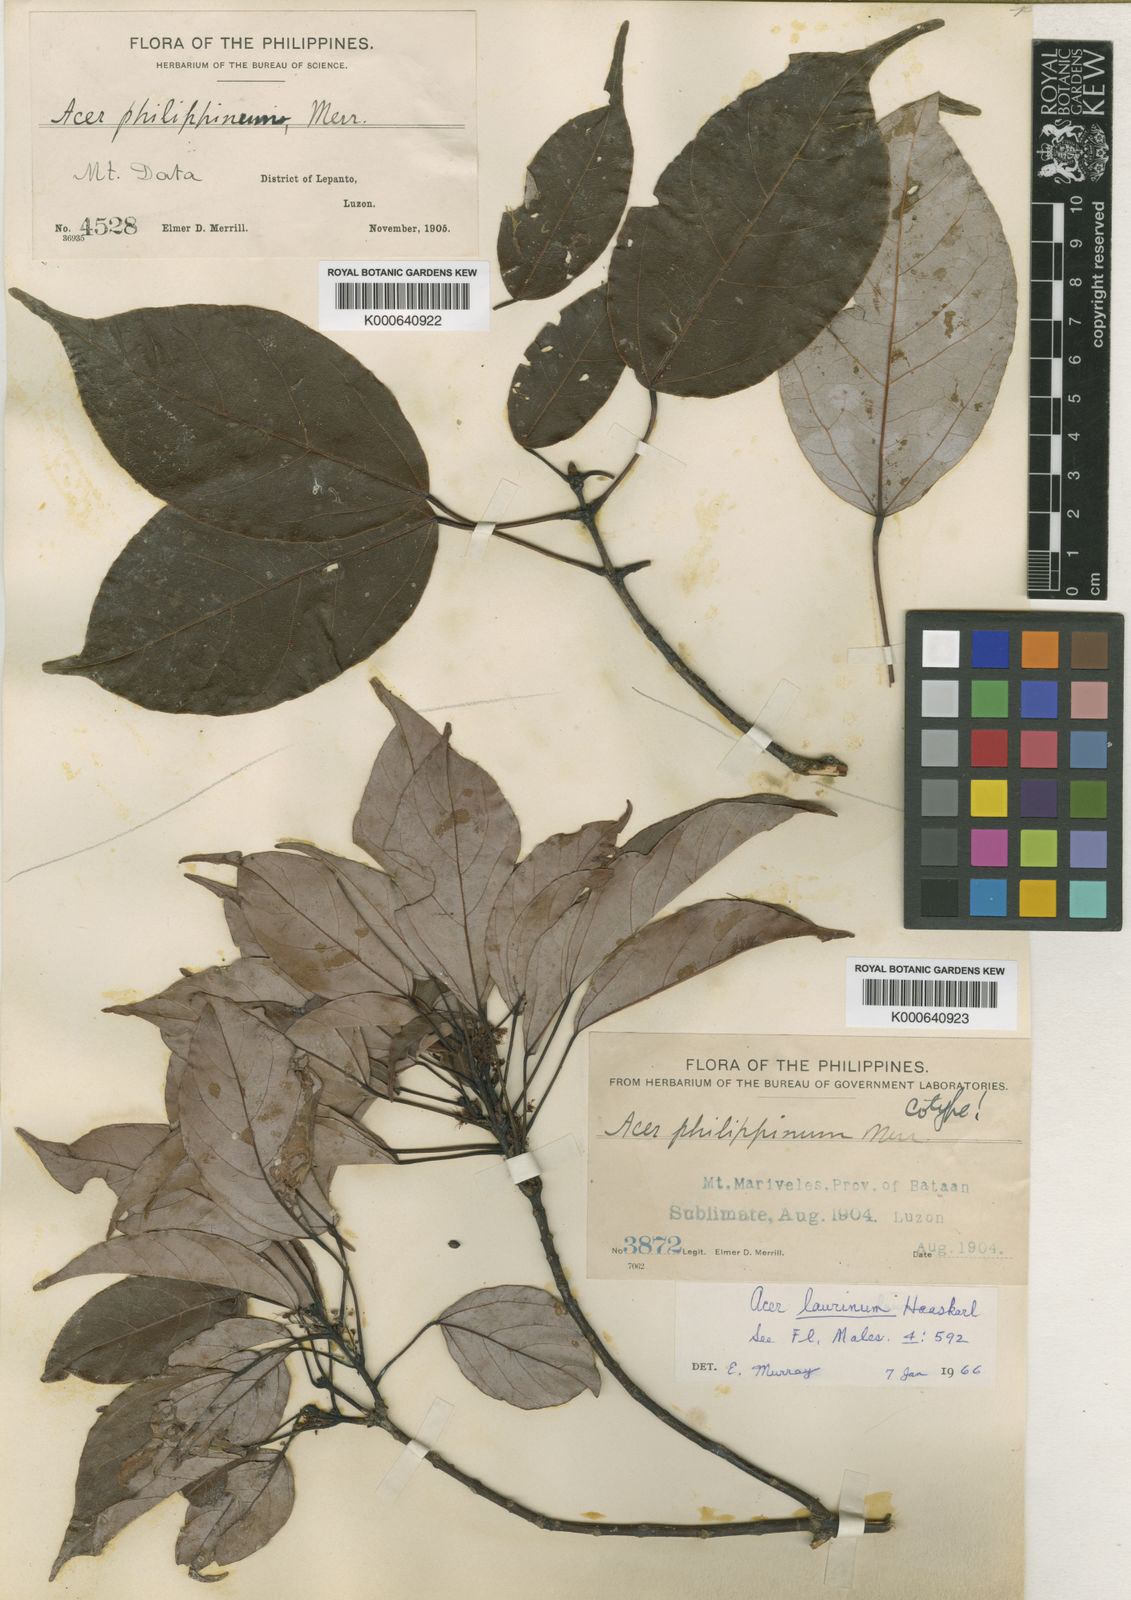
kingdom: Plantae
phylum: Tracheophyta
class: Magnoliopsida
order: Sapindales
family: Sapindaceae
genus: Acer
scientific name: Acer laurinum
